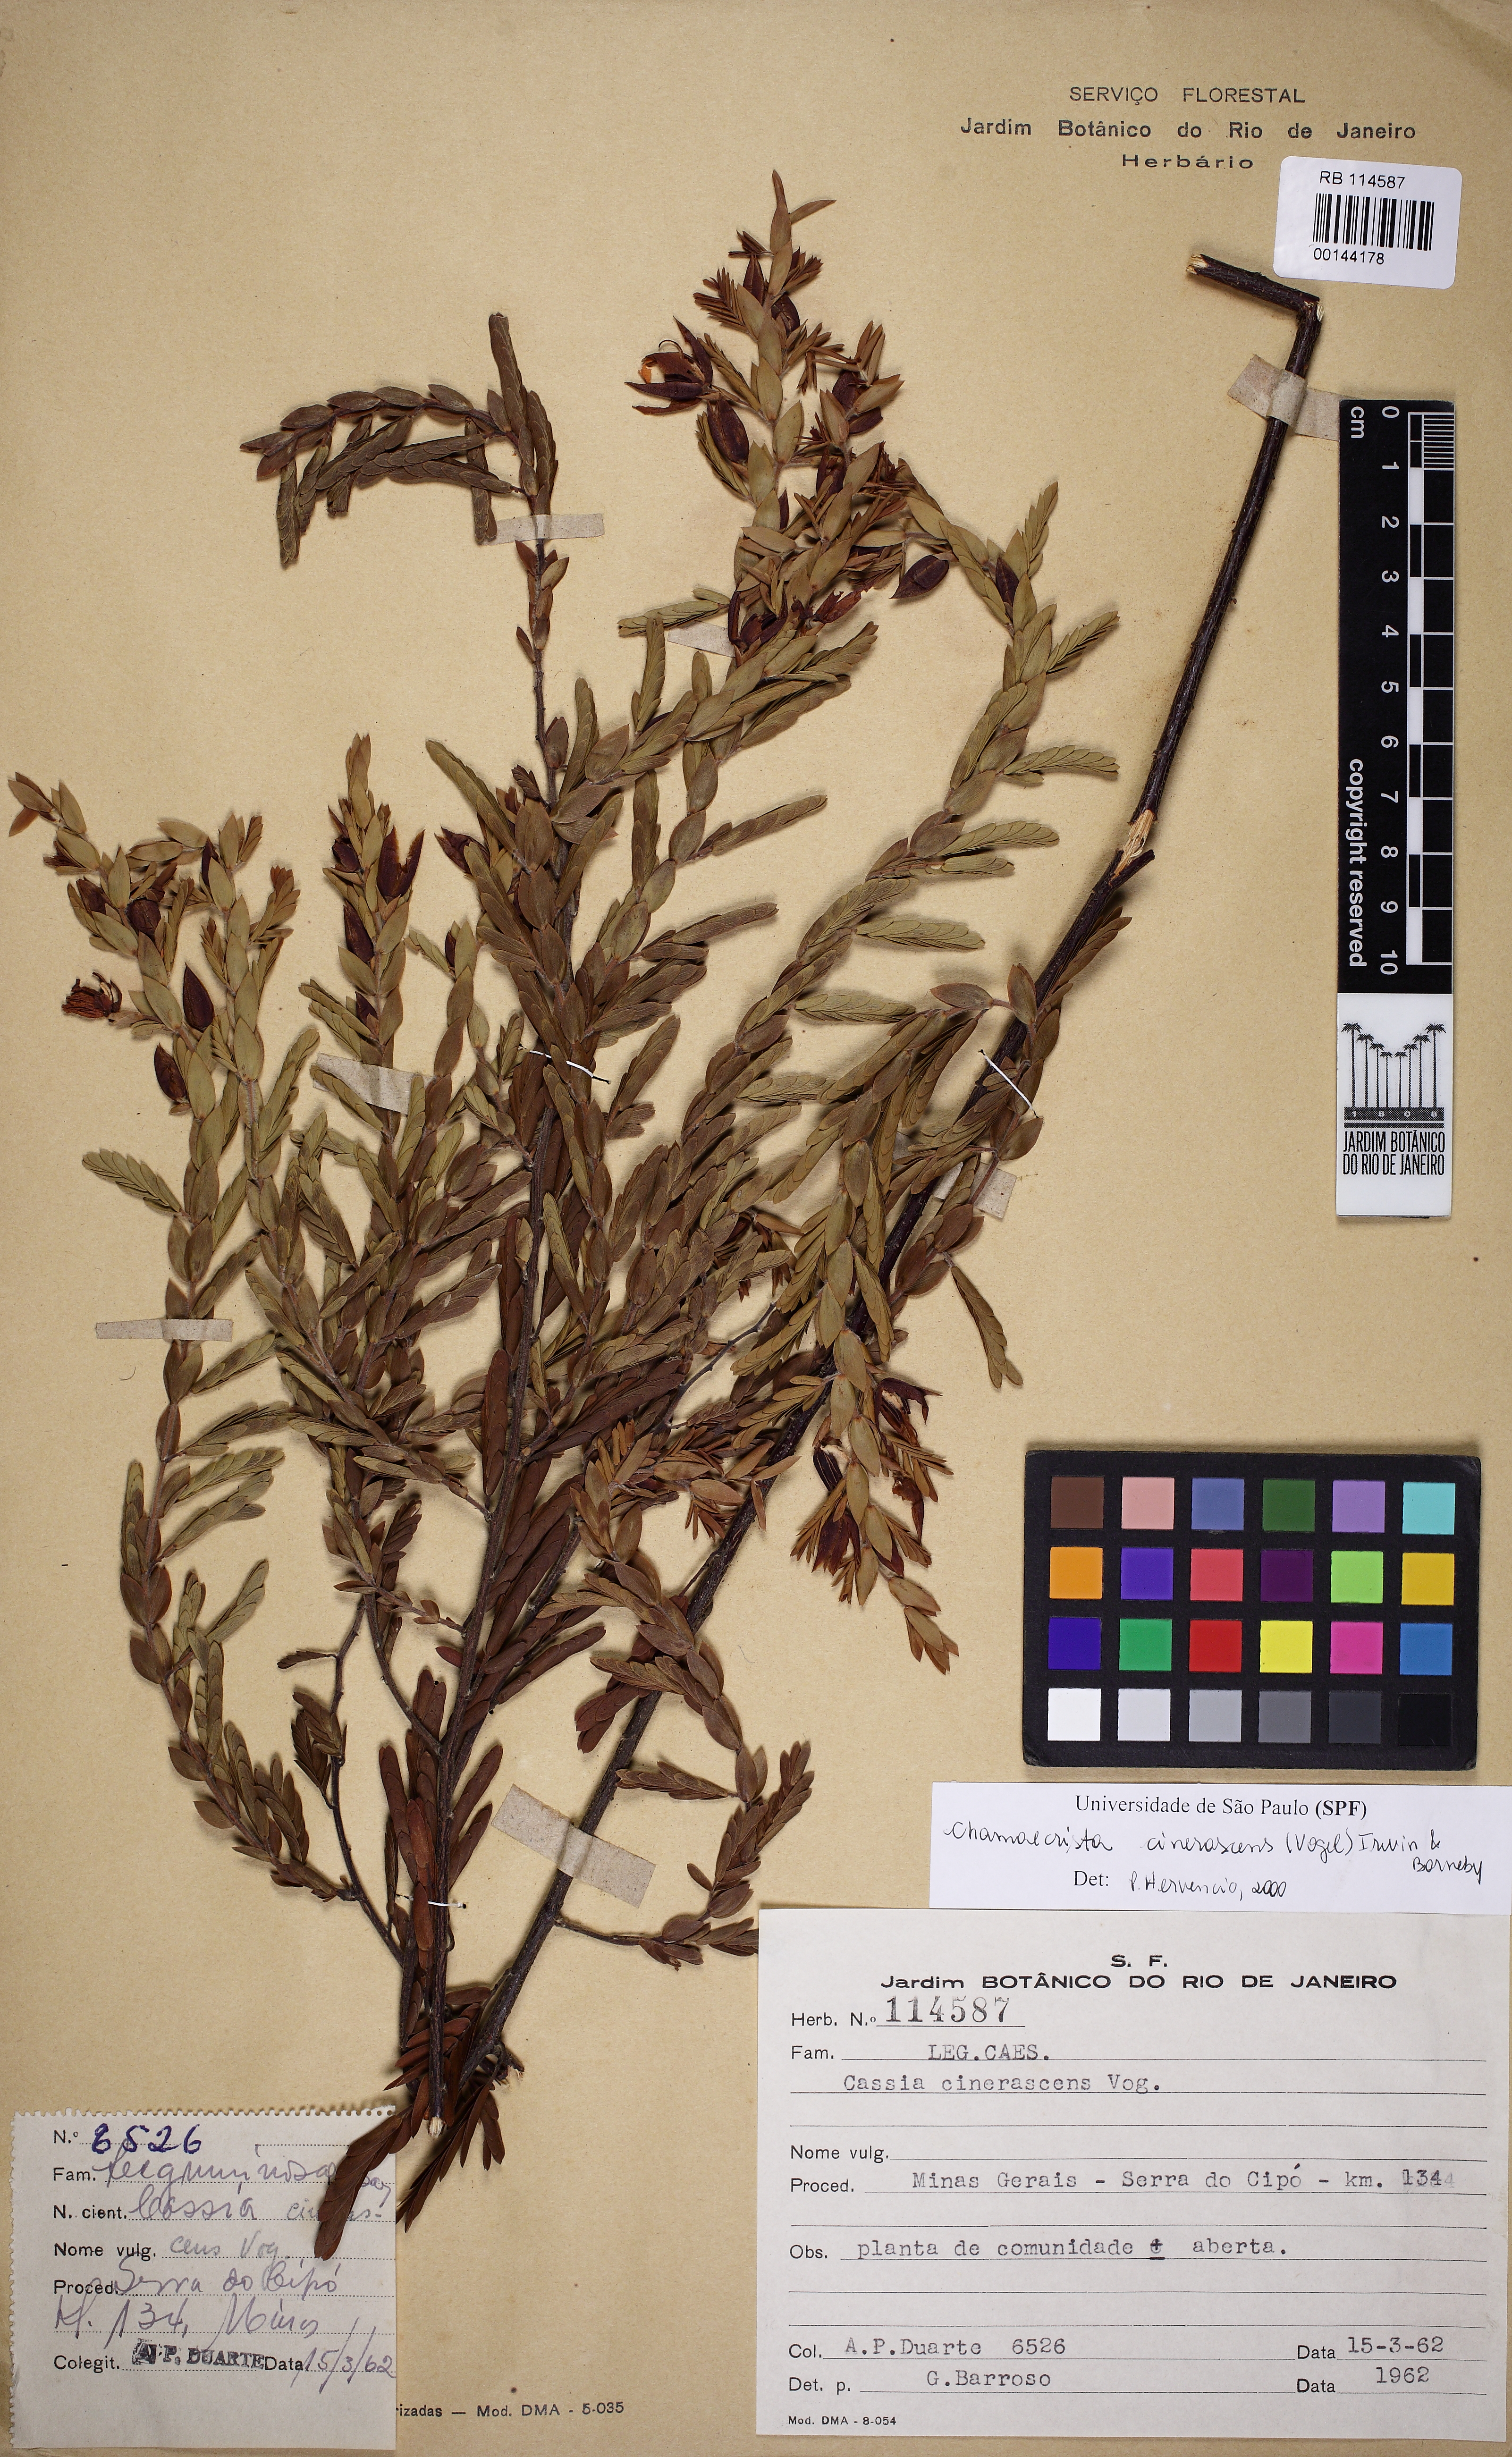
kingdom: Plantae
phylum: Tracheophyta
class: Magnoliopsida
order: Fabales
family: Fabaceae
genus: Chamaecrista
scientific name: Chamaecrista cinerascens
